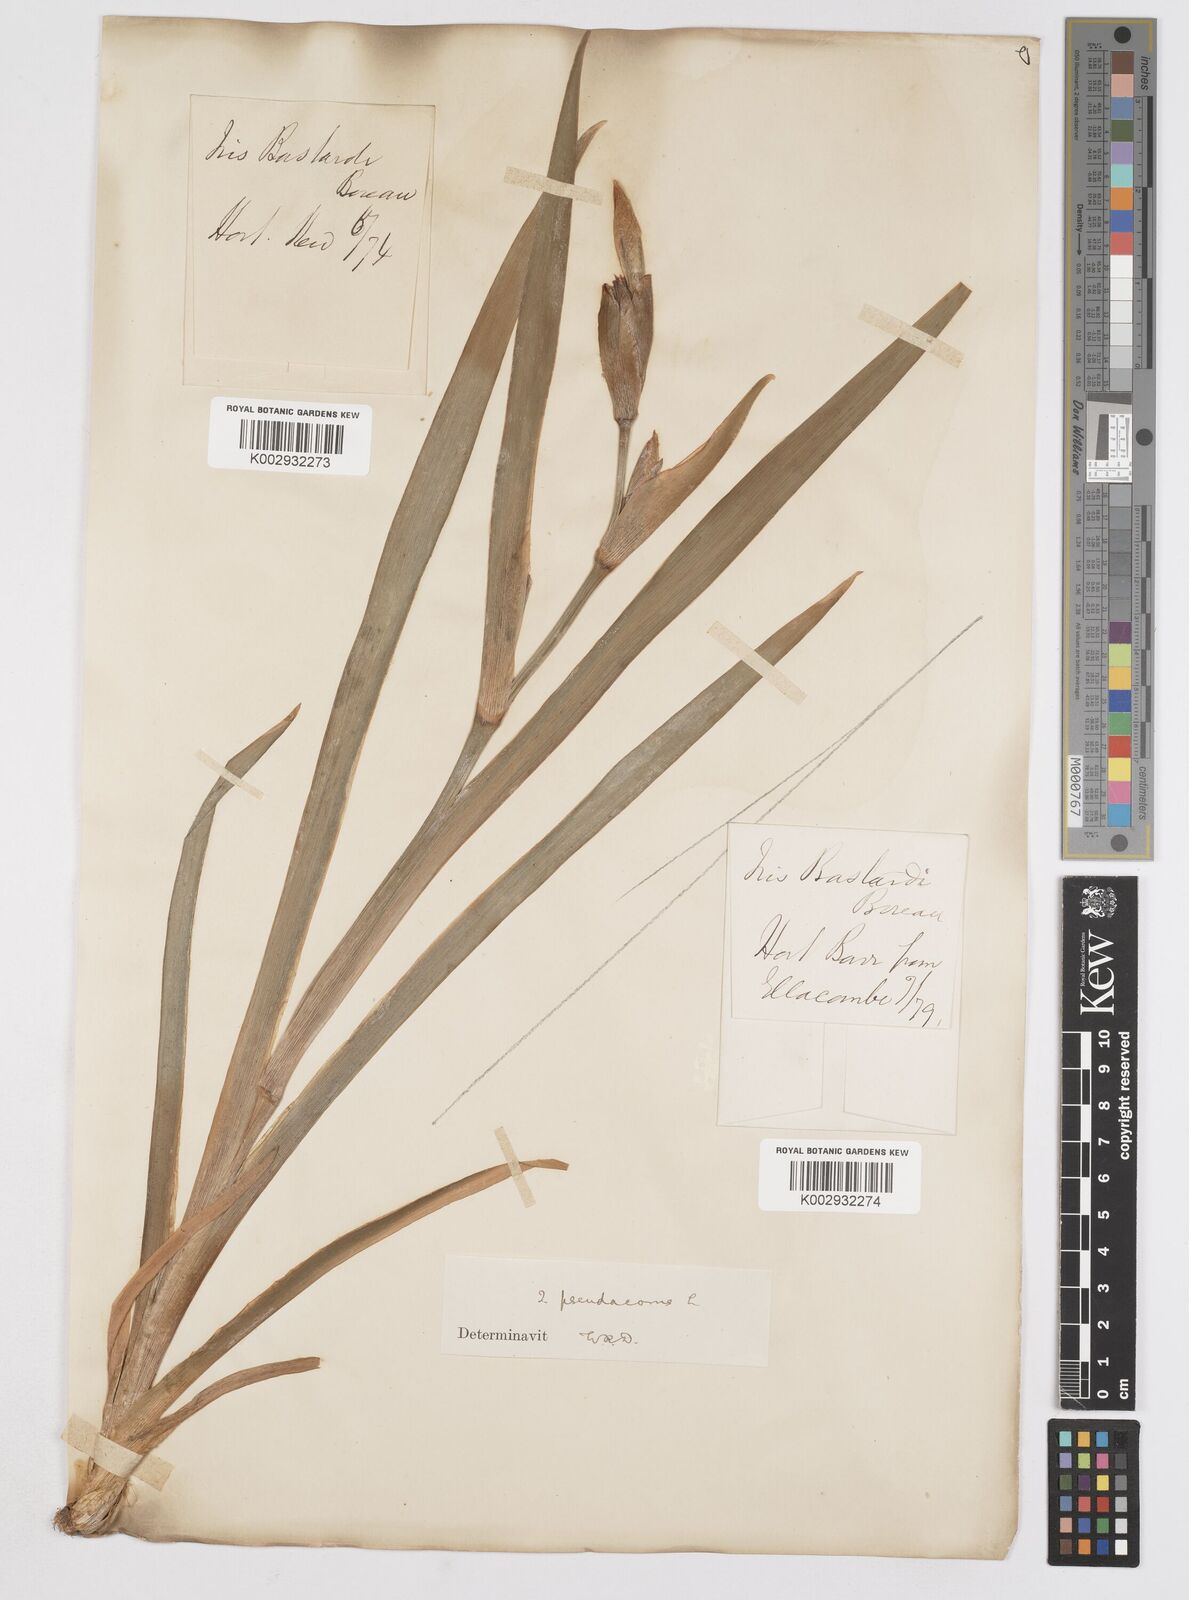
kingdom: Plantae
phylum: Tracheophyta
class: Liliopsida
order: Asparagales
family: Iridaceae
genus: Iris
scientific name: Iris pseudacorus
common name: Yellow flag
